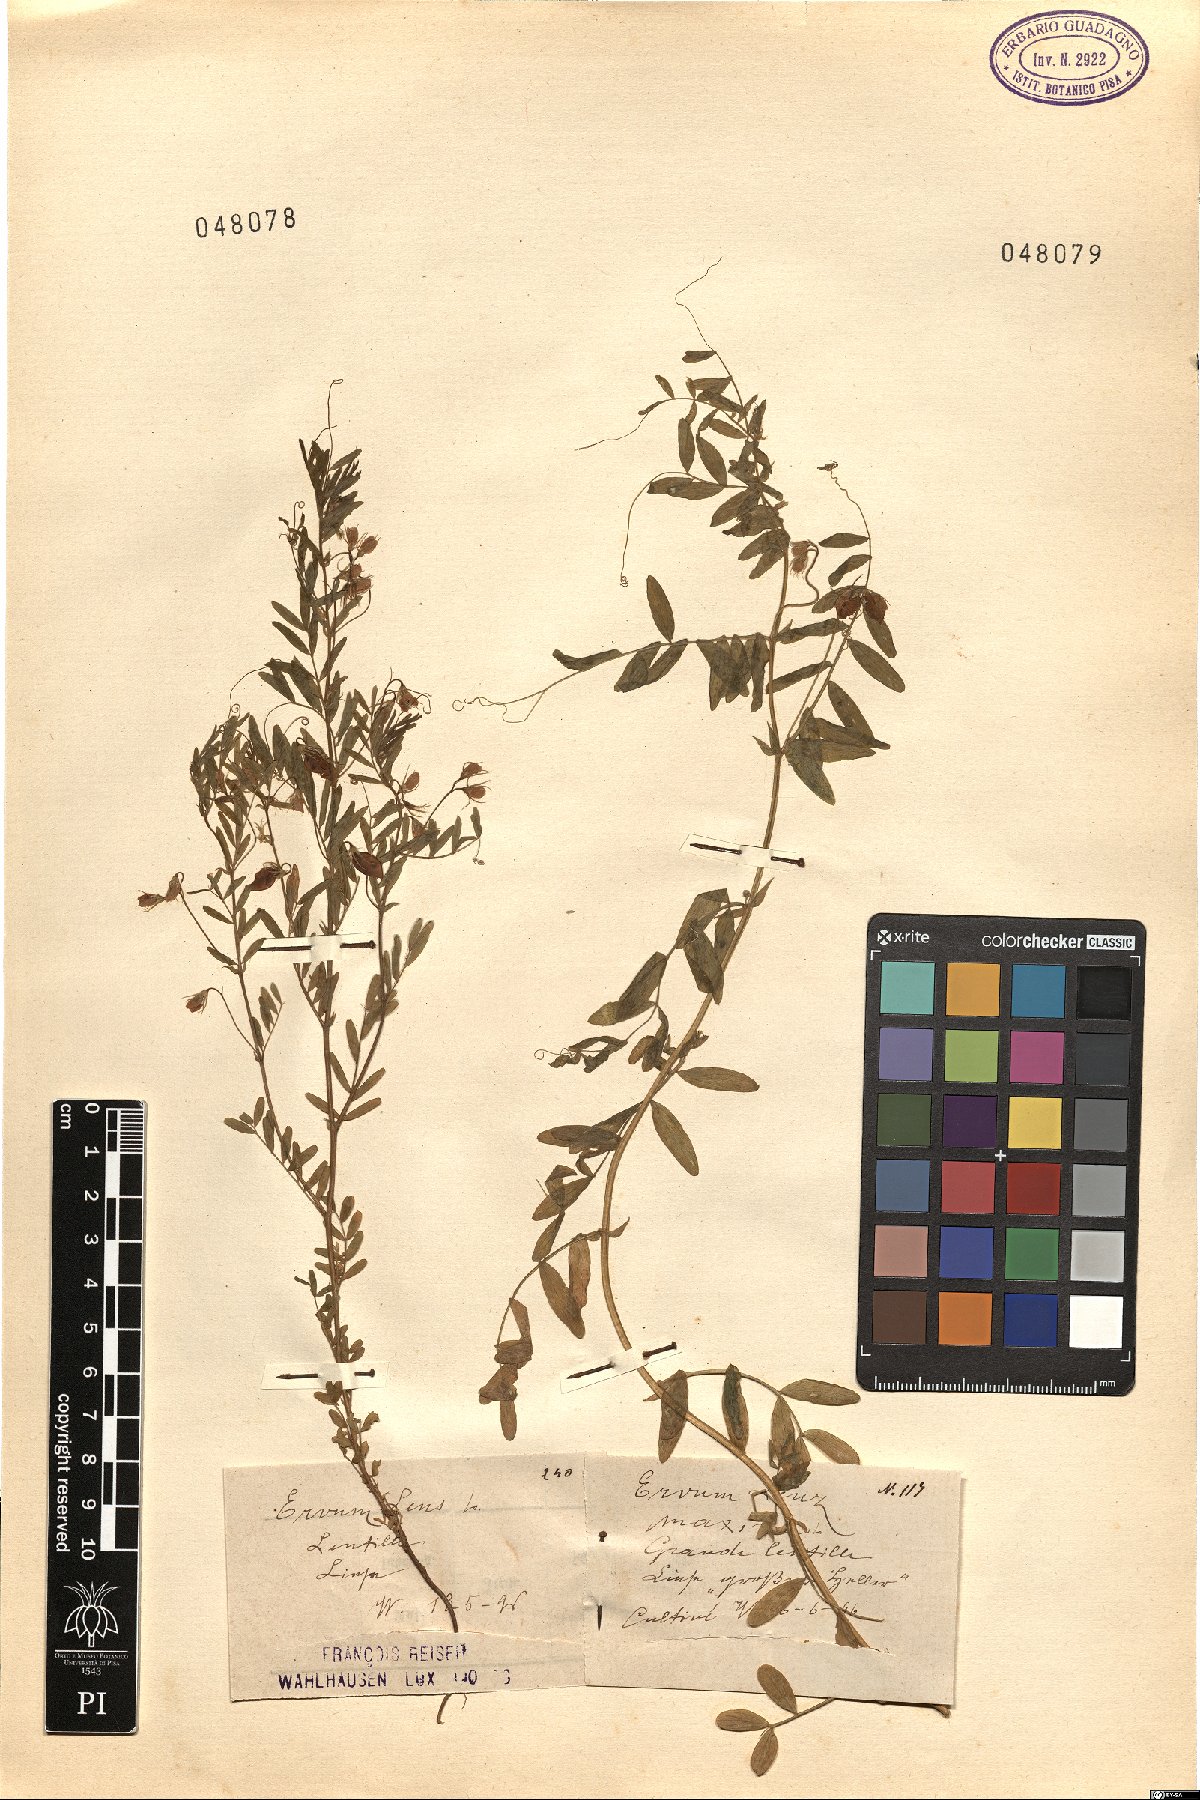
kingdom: Plantae
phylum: Tracheophyta
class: Magnoliopsida
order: Fabales
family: Fabaceae
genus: Vicia
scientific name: Vicia lens
